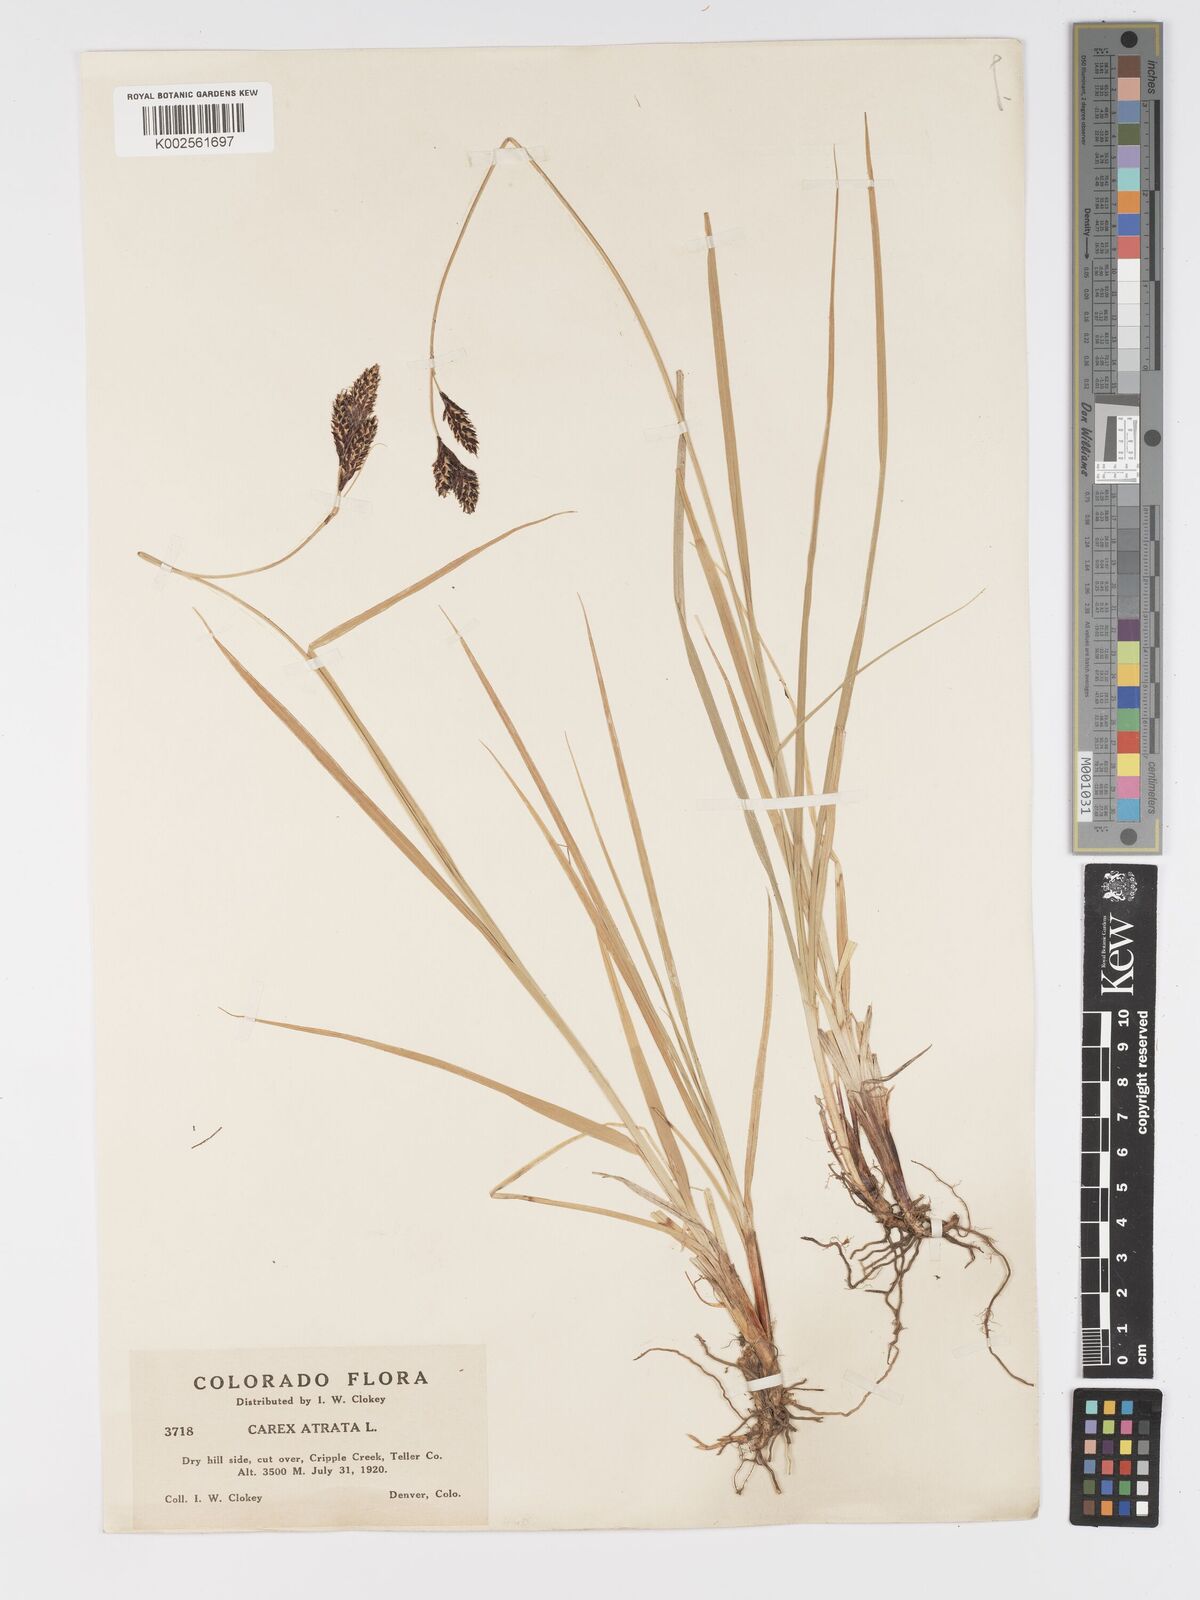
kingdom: Plantae
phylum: Tracheophyta
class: Liliopsida
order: Poales
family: Cyperaceae
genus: Carex
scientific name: Carex chalciolepis
